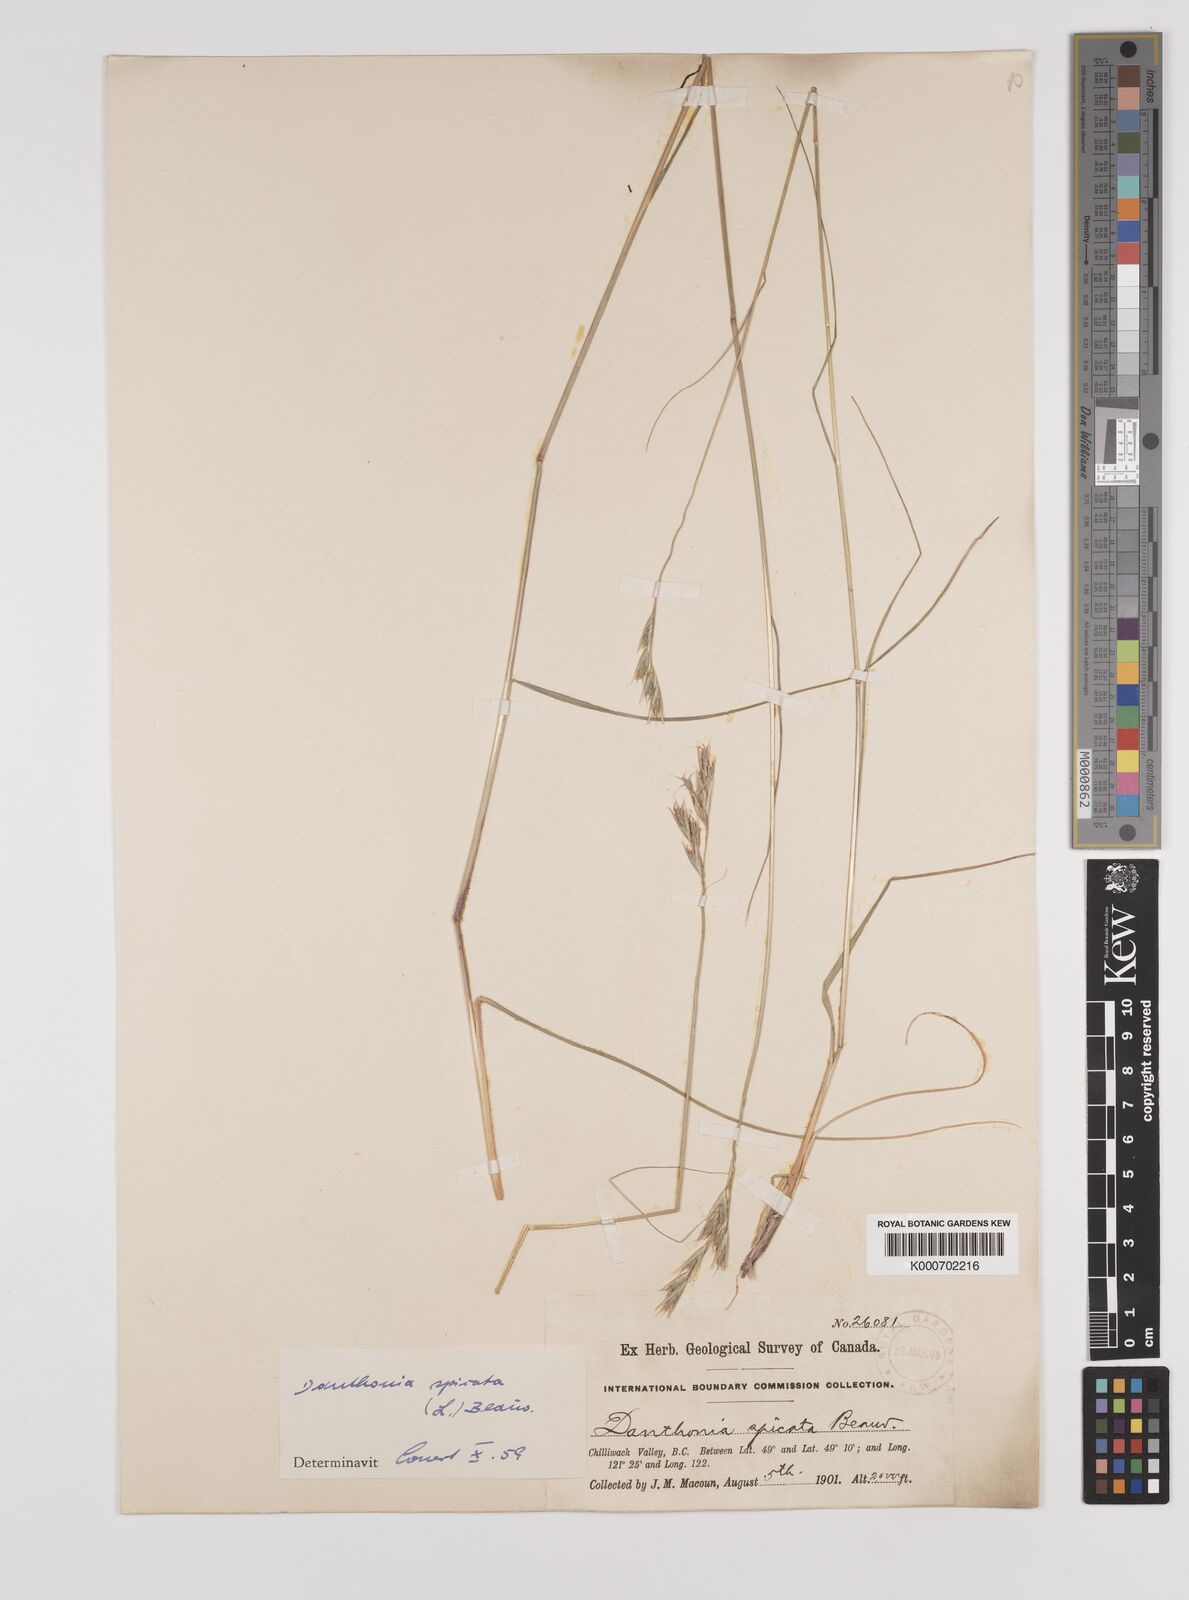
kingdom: Plantae
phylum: Tracheophyta
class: Liliopsida
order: Poales
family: Poaceae
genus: Danthonia
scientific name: Danthonia spicata
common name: Common wild oatgrass
